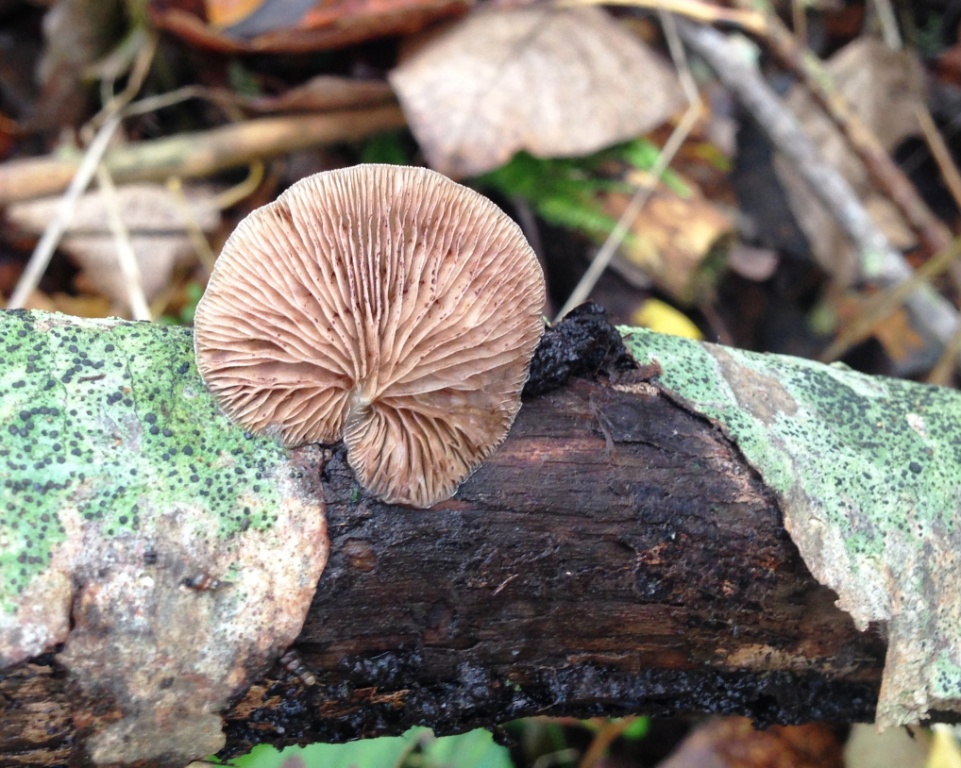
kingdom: Fungi
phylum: Basidiomycota
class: Agaricomycetes
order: Agaricales
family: Crepidotaceae
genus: Crepidotus
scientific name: Crepidotus mollis
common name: blød muslingesvamp
